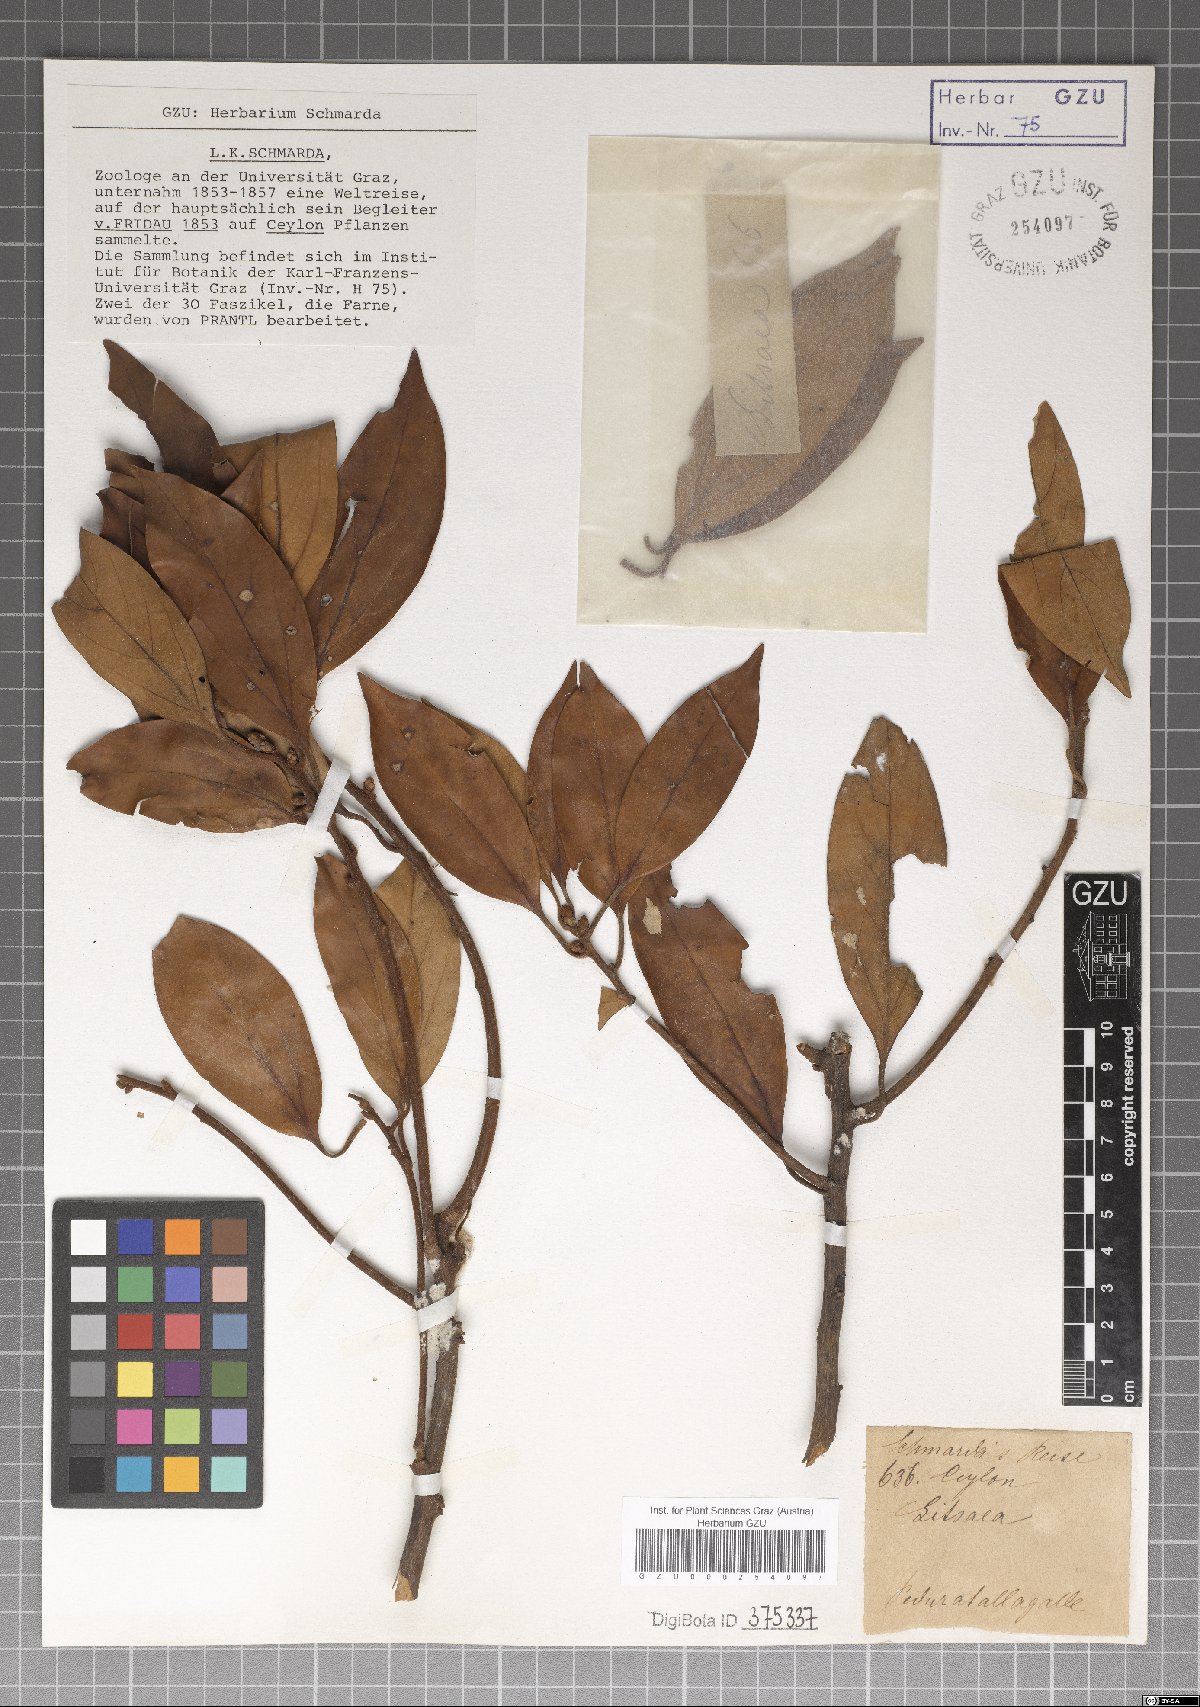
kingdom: Plantae
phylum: Tracheophyta
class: Magnoliopsida
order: Laurales
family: Lauraceae
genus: Litsea
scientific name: Litsea
